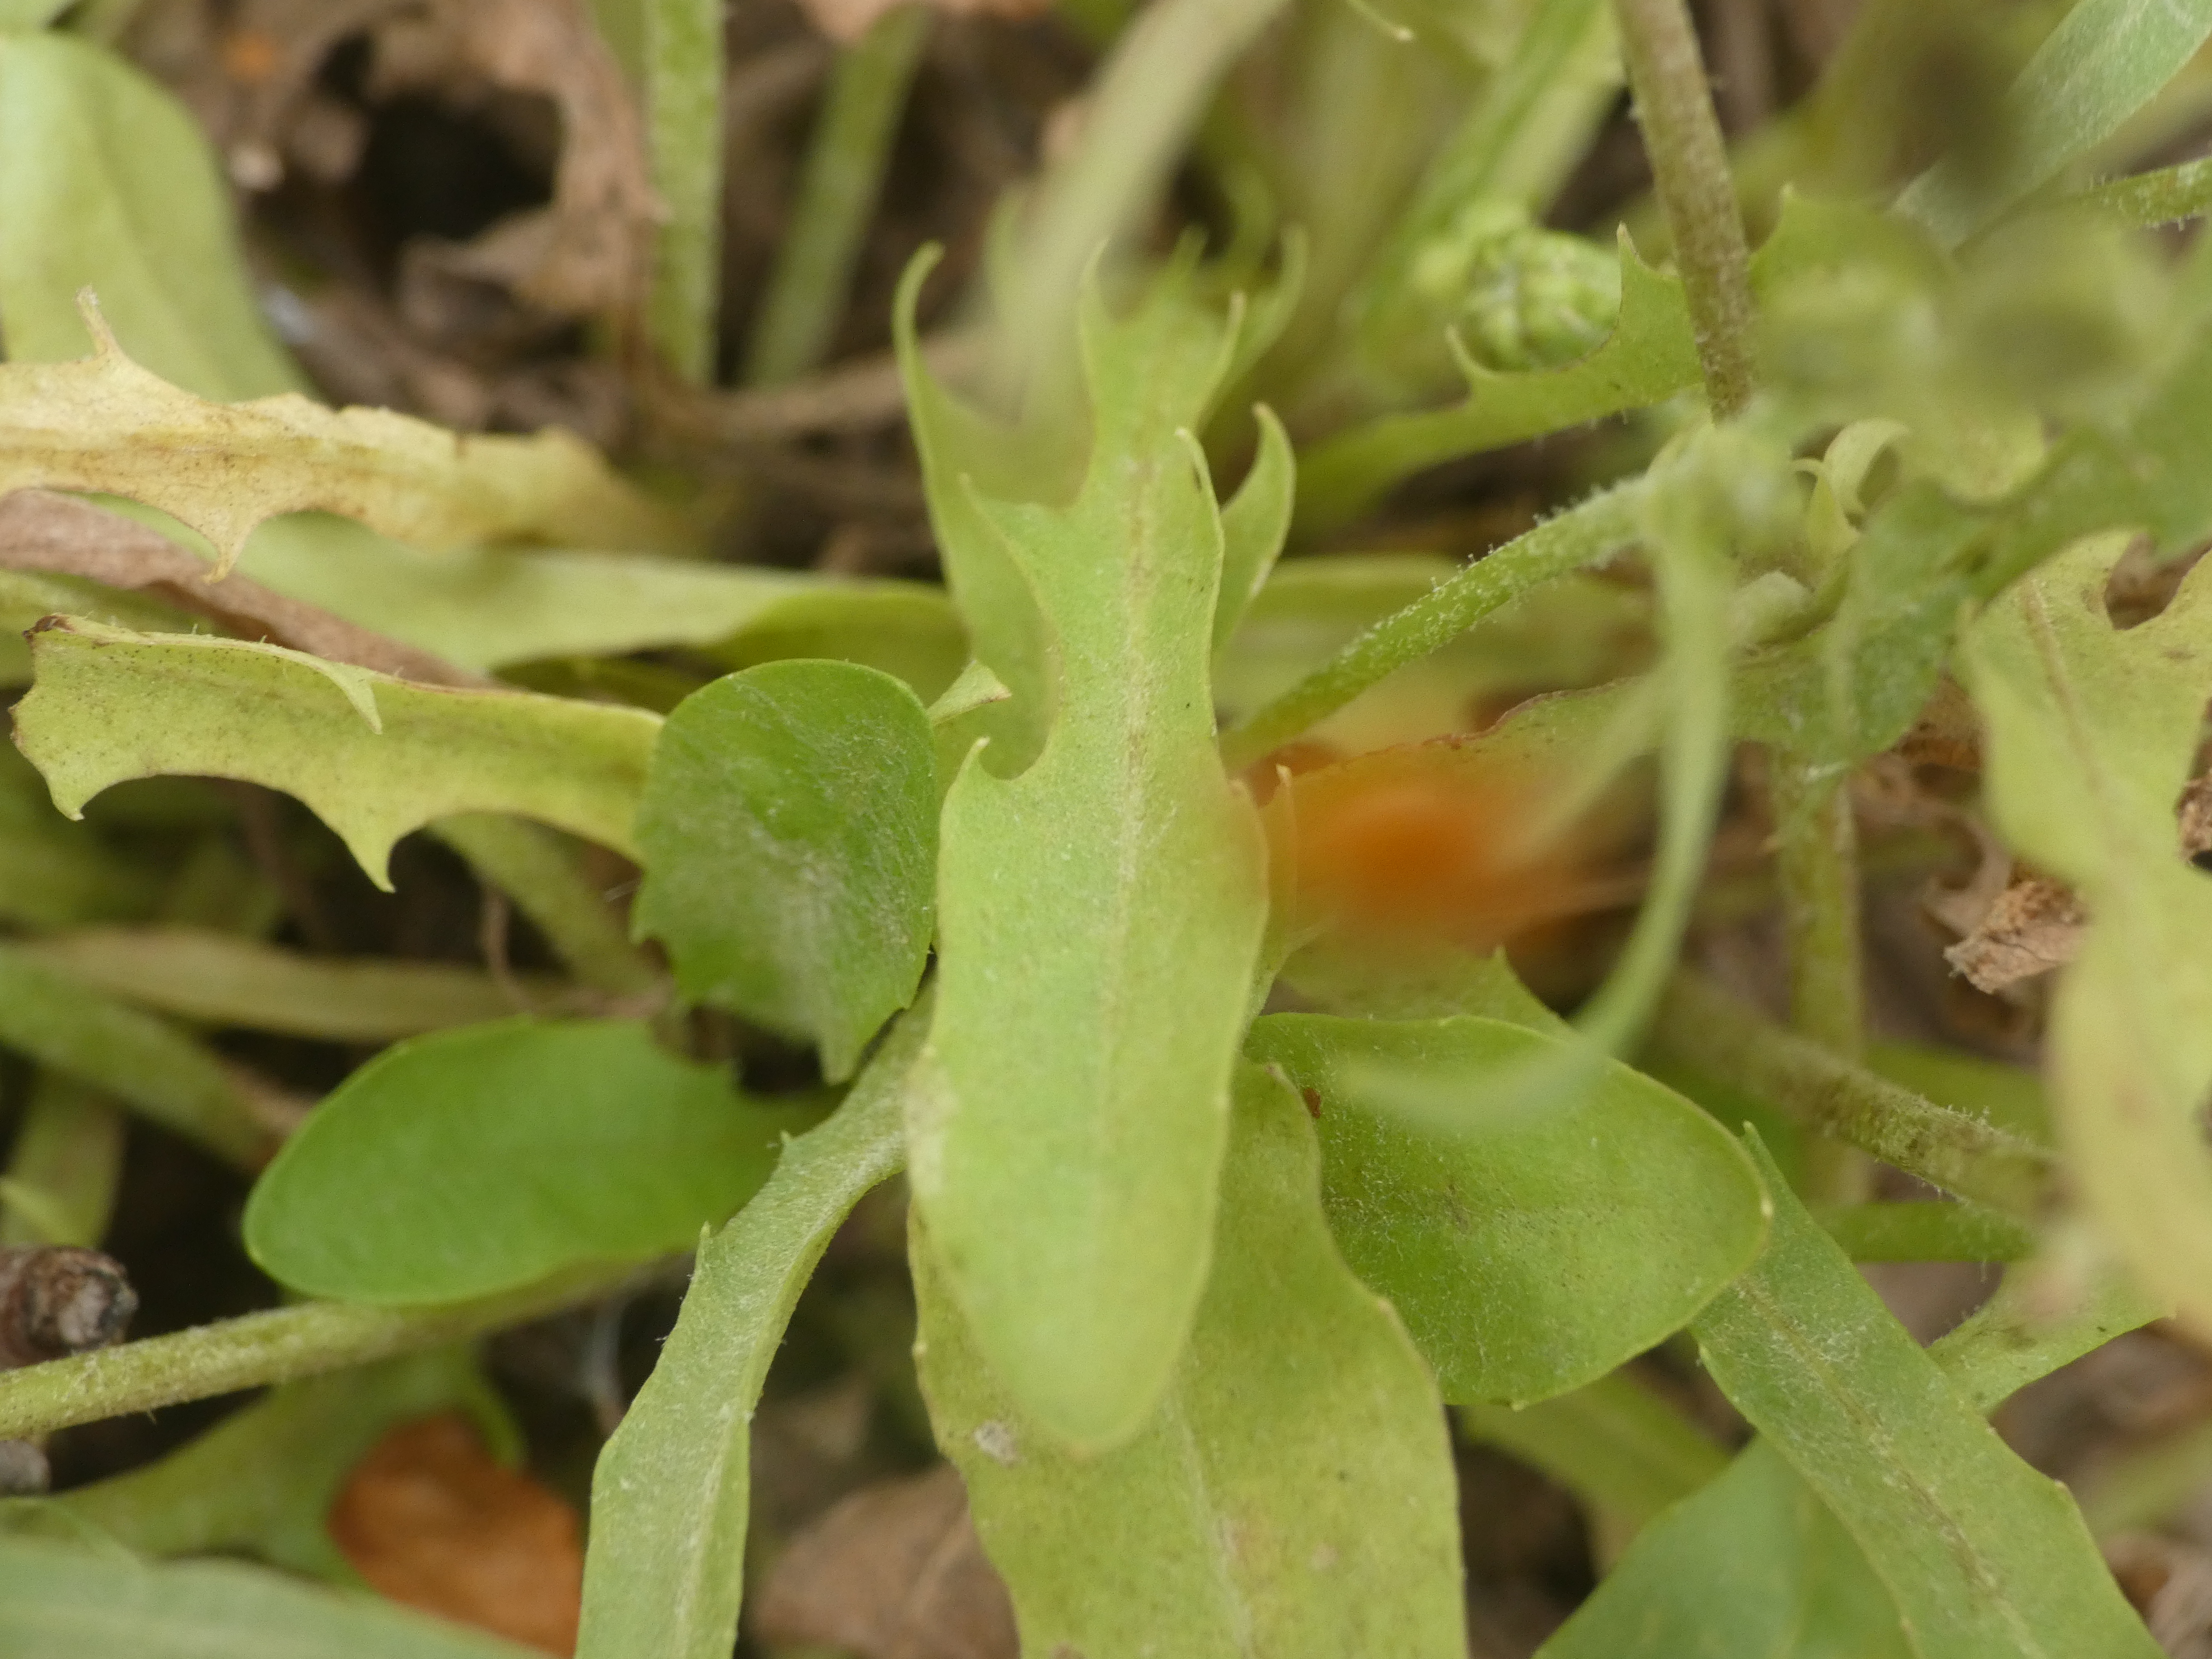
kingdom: Plantae
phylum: Tracheophyta
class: Magnoliopsida
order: Asterales
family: Asteraceae
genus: Crepis
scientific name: Crepis capillaris
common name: Grøn høgeskæg
